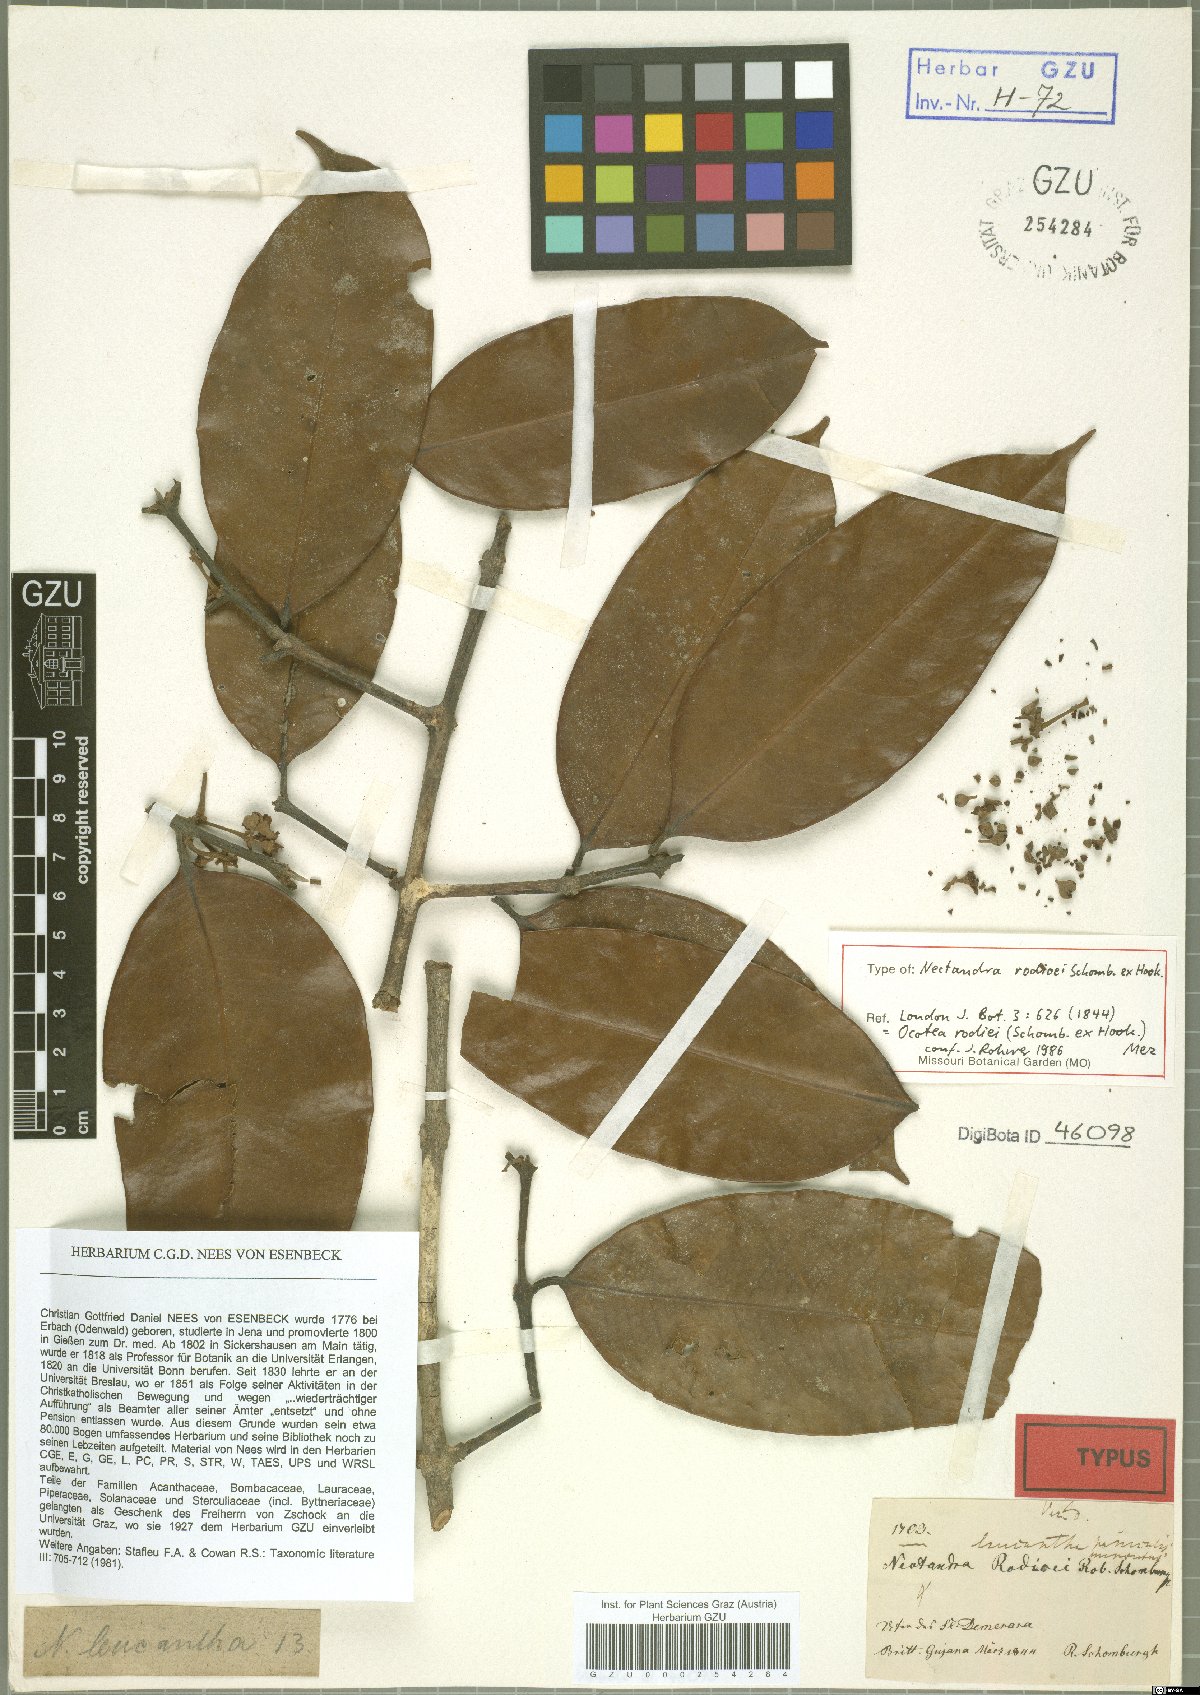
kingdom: Plantae
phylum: Tracheophyta
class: Magnoliopsida
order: Laurales
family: Lauraceae
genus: Chlorocardium
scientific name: Chlorocardium rodiei
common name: Cogwood
